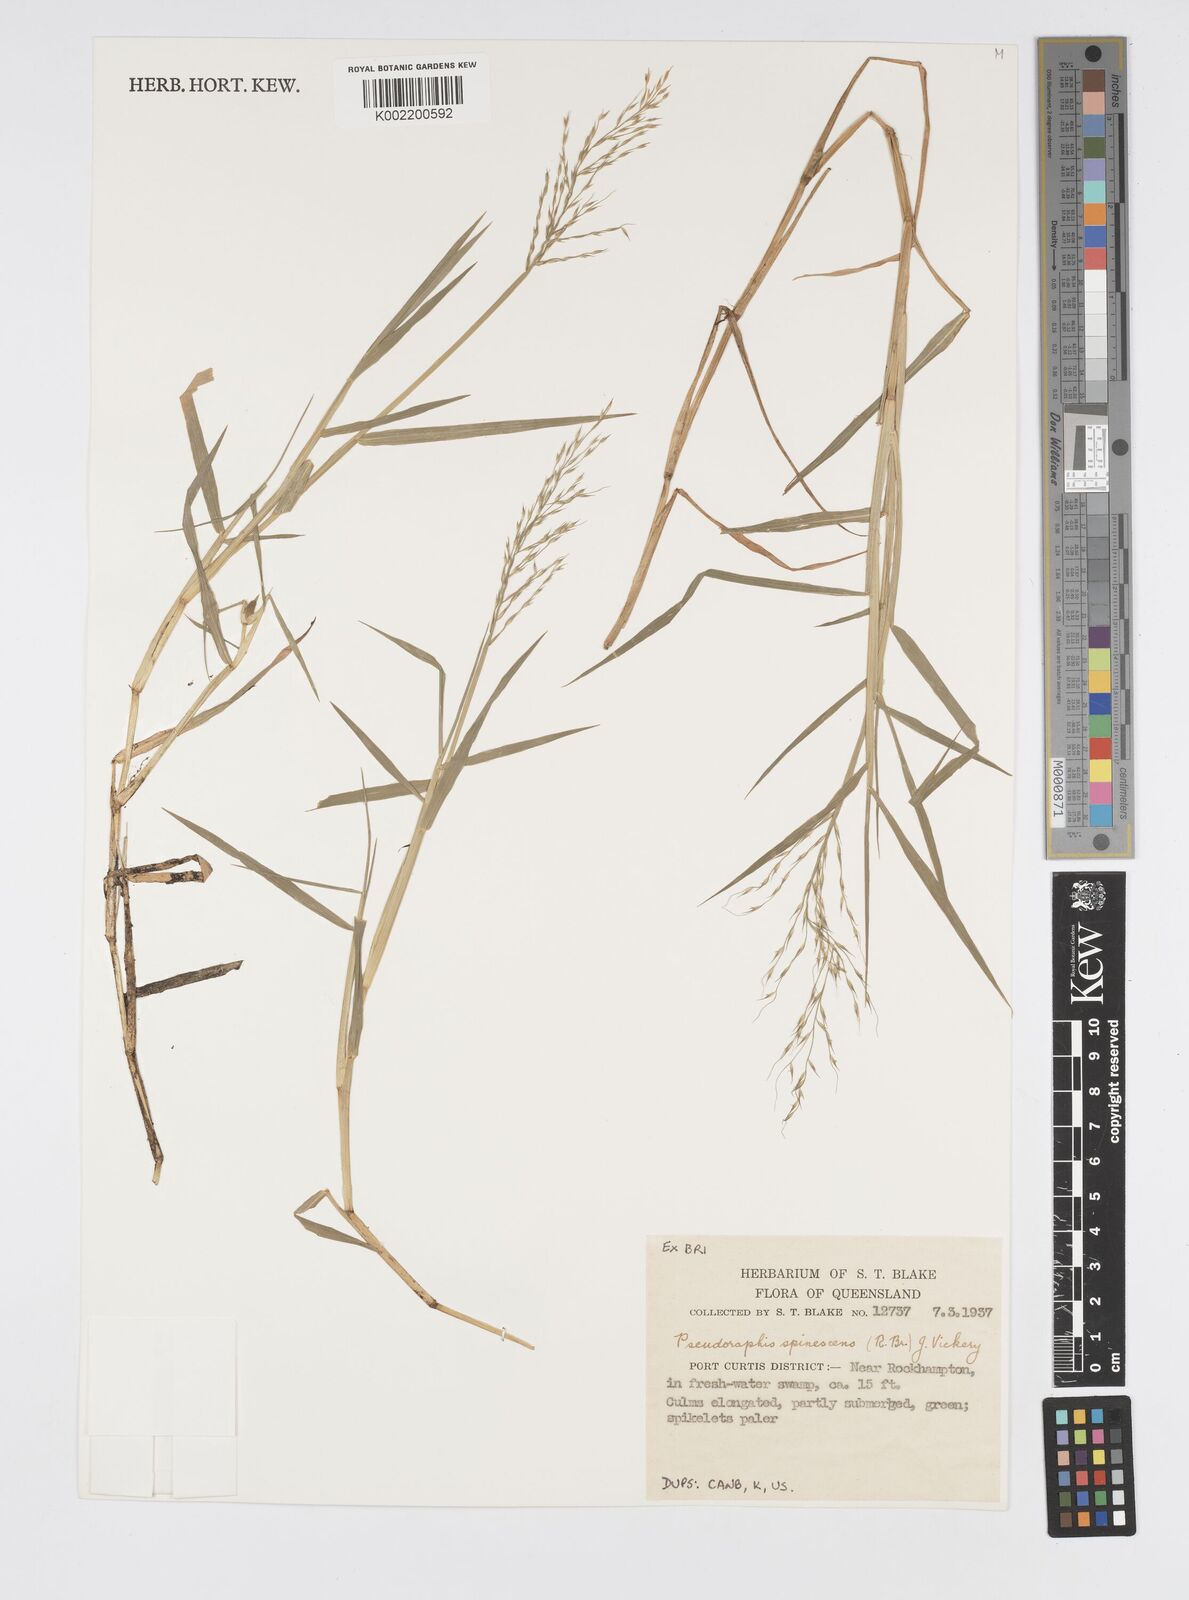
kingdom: Plantae
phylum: Tracheophyta
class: Liliopsida
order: Poales
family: Poaceae
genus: Pseudoraphis
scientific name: Pseudoraphis spinescens
